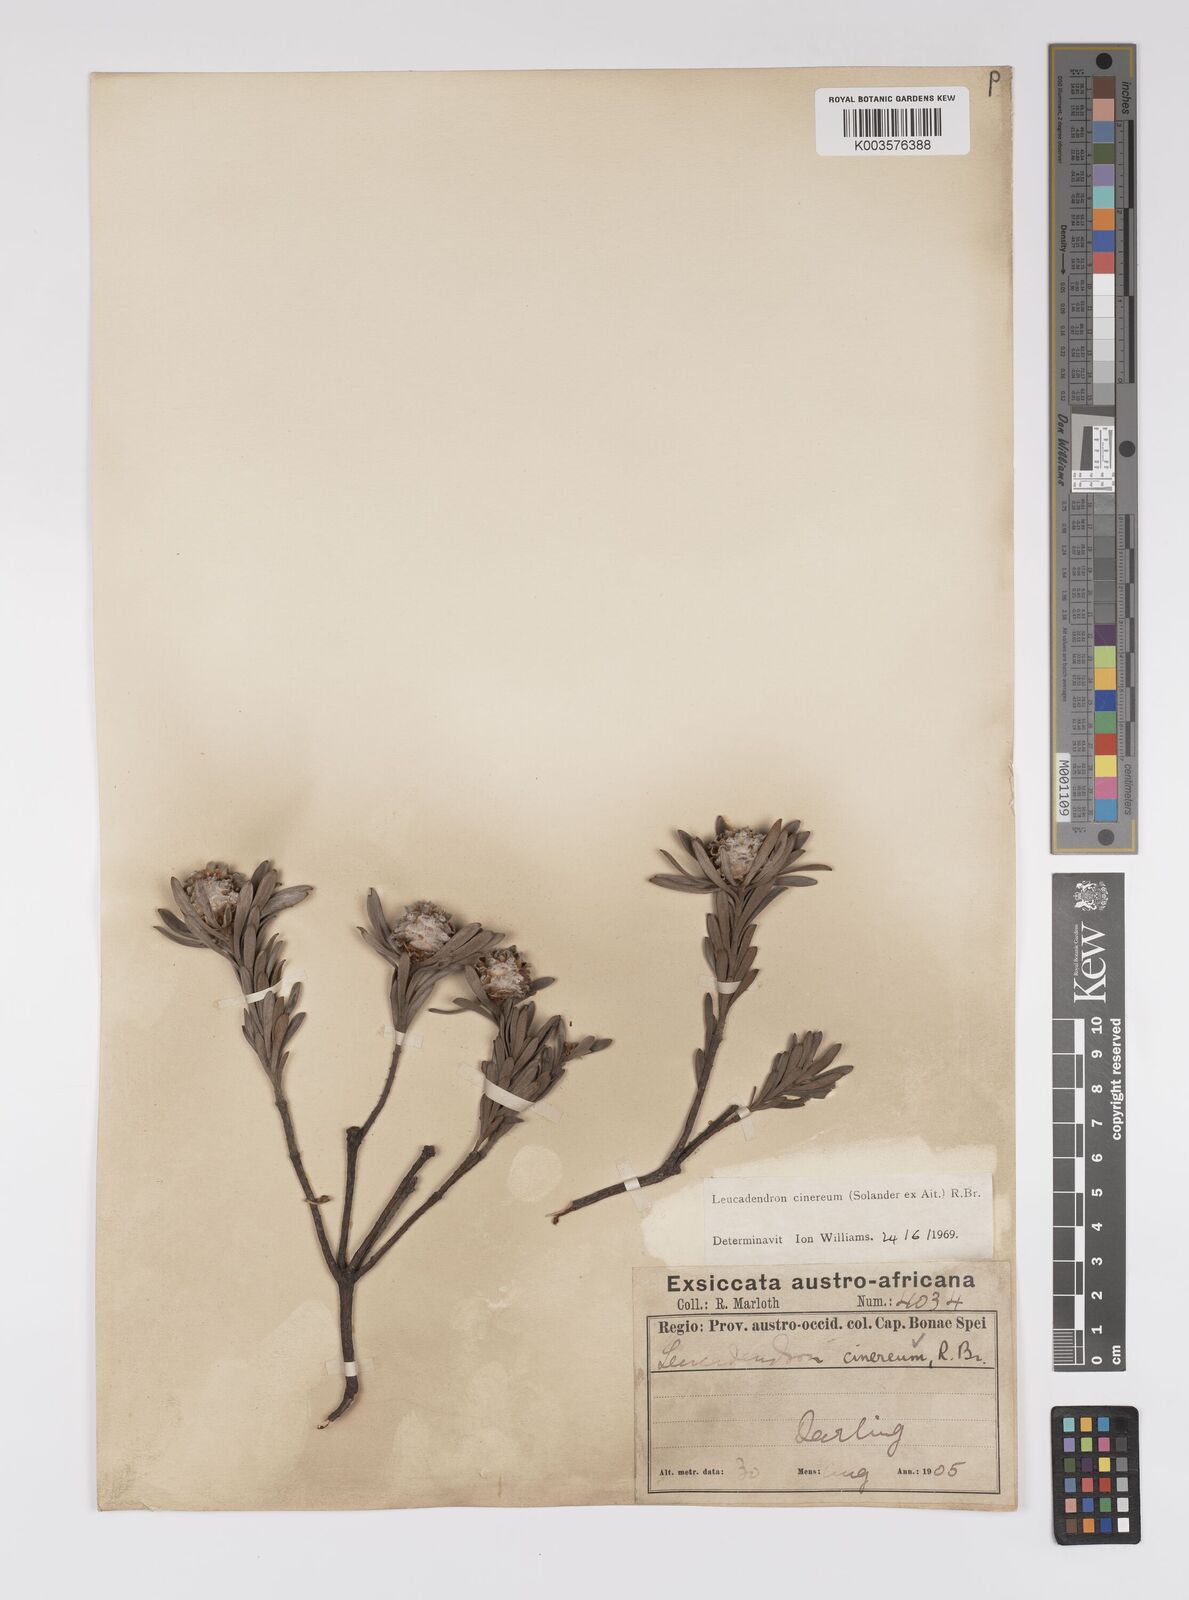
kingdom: Plantae
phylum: Tracheophyta
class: Magnoliopsida
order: Proteales
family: Proteaceae
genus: Leucadendron
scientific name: Leucadendron cinereum
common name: Scraggly conebush
